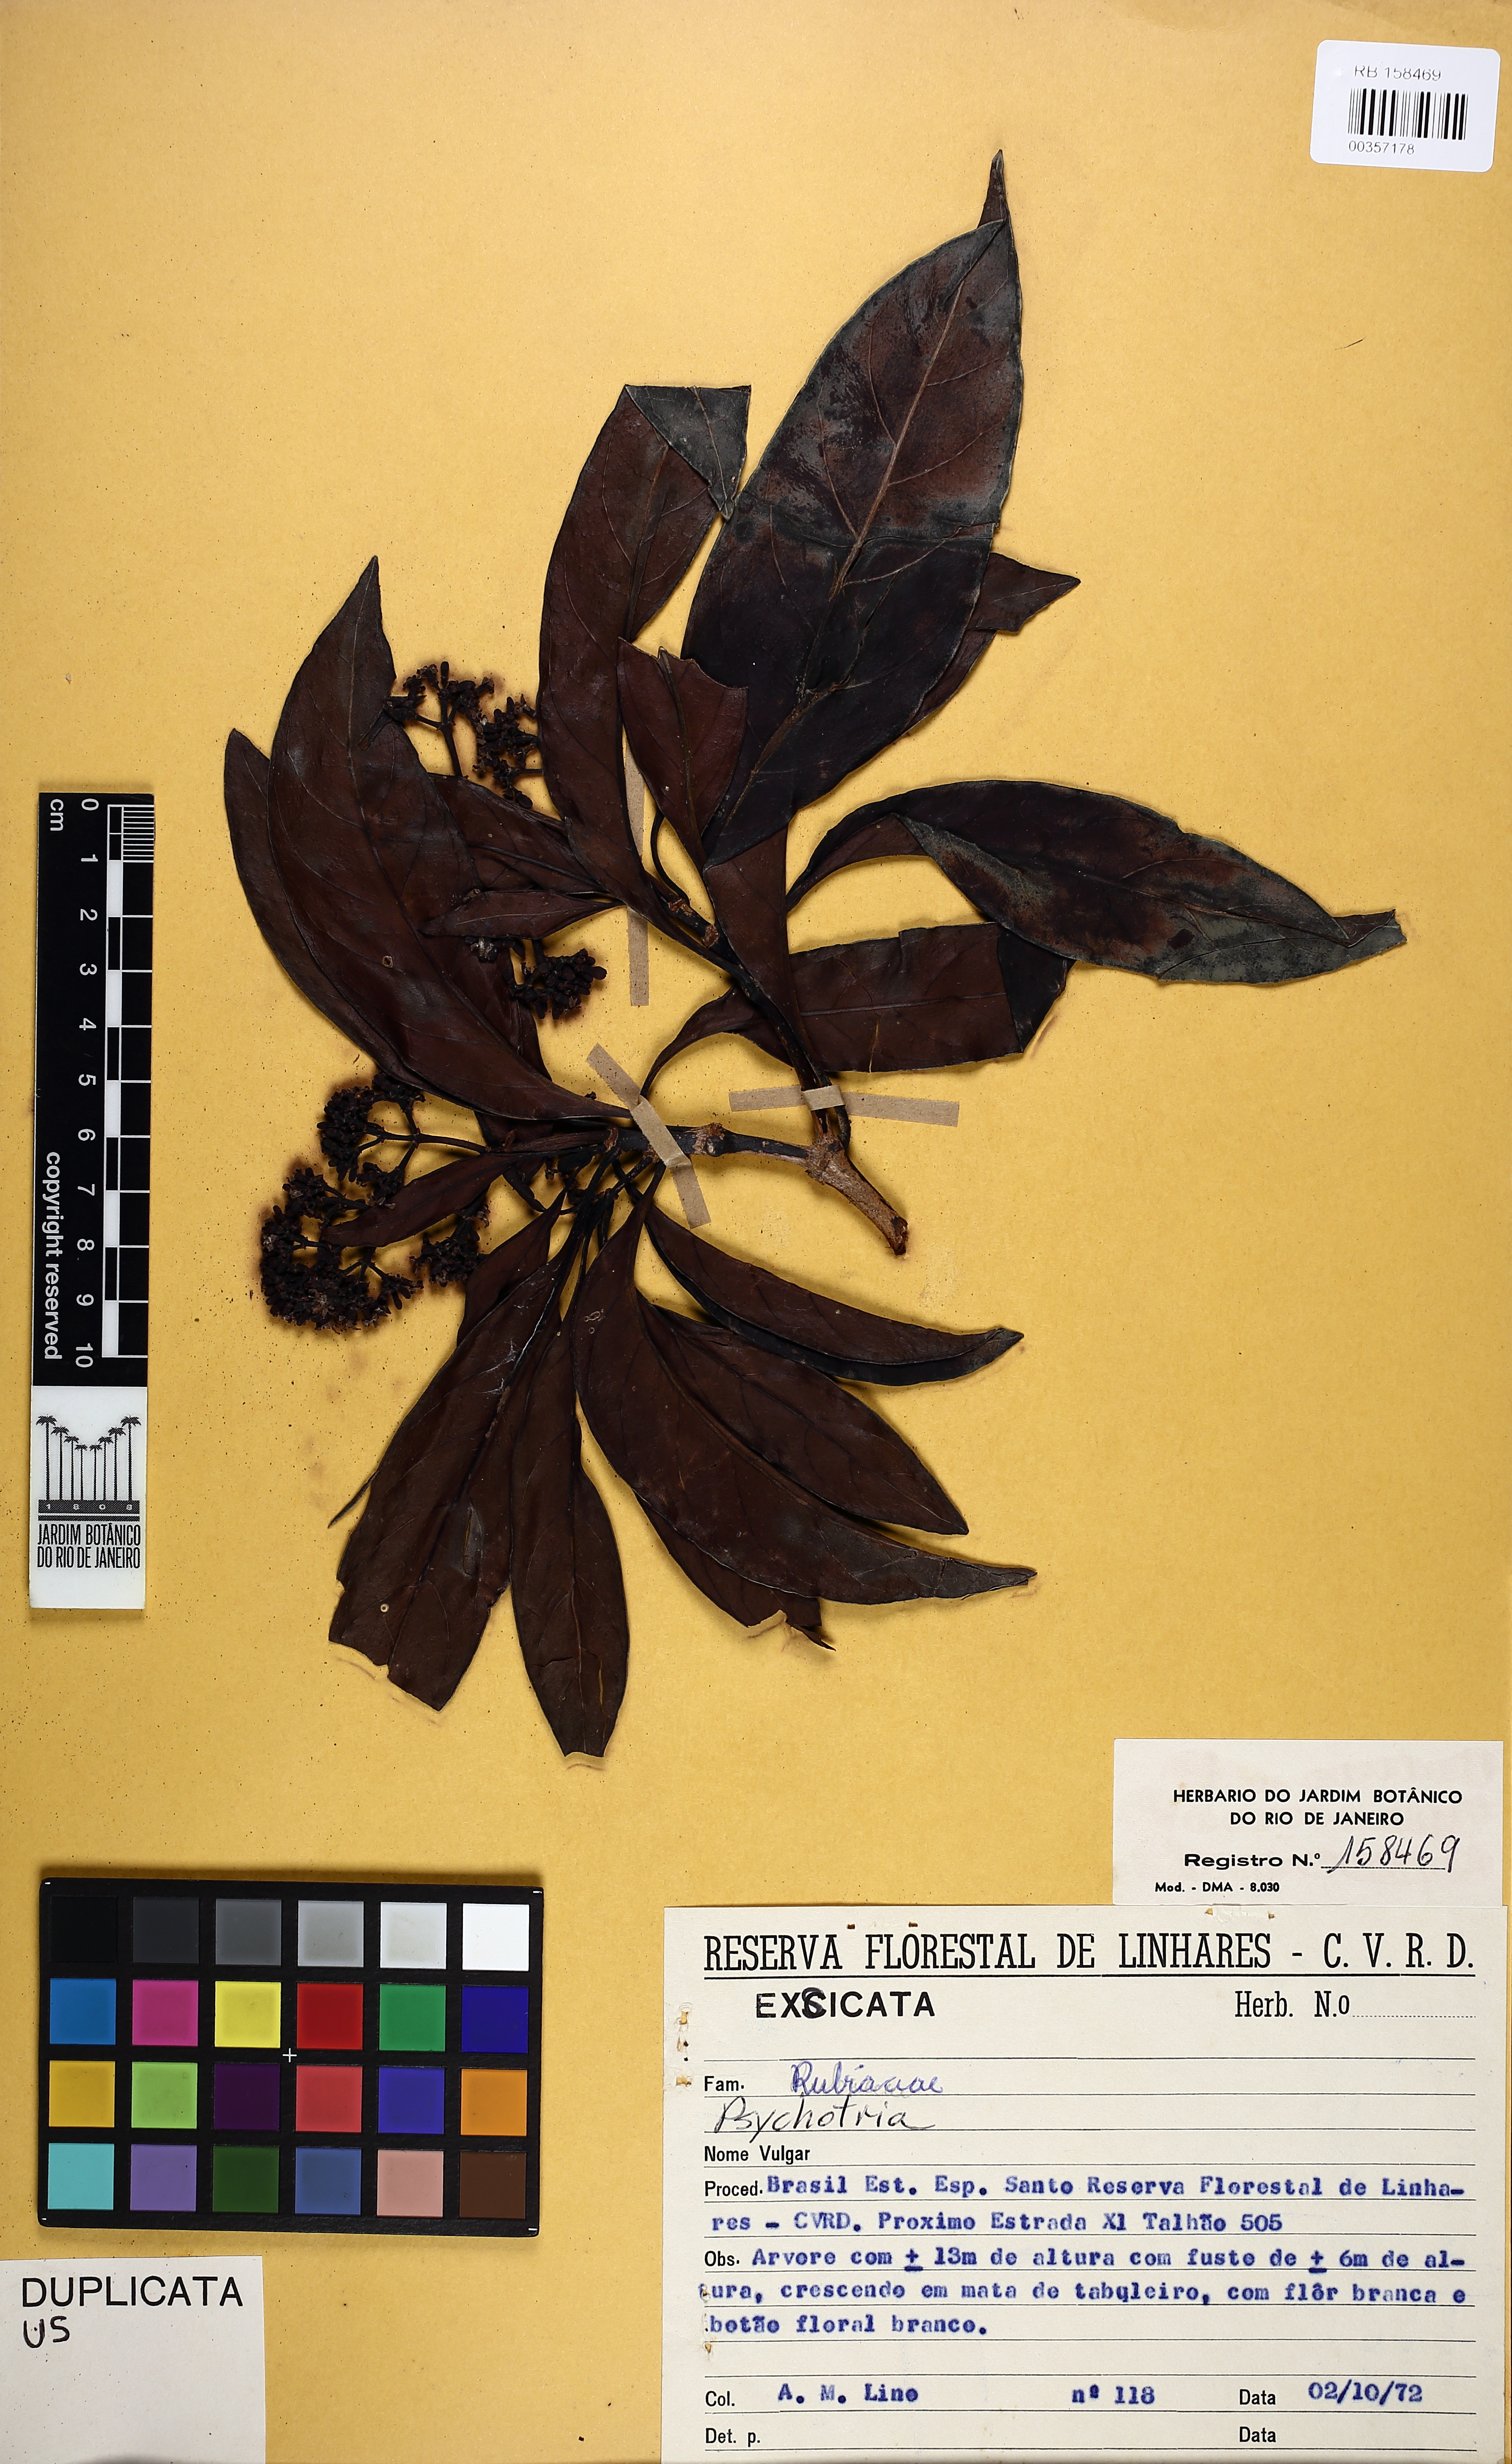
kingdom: Plantae
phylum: Tracheophyta
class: Magnoliopsida
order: Gentianales
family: Rubiaceae
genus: Psychotria
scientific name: Psychotria
